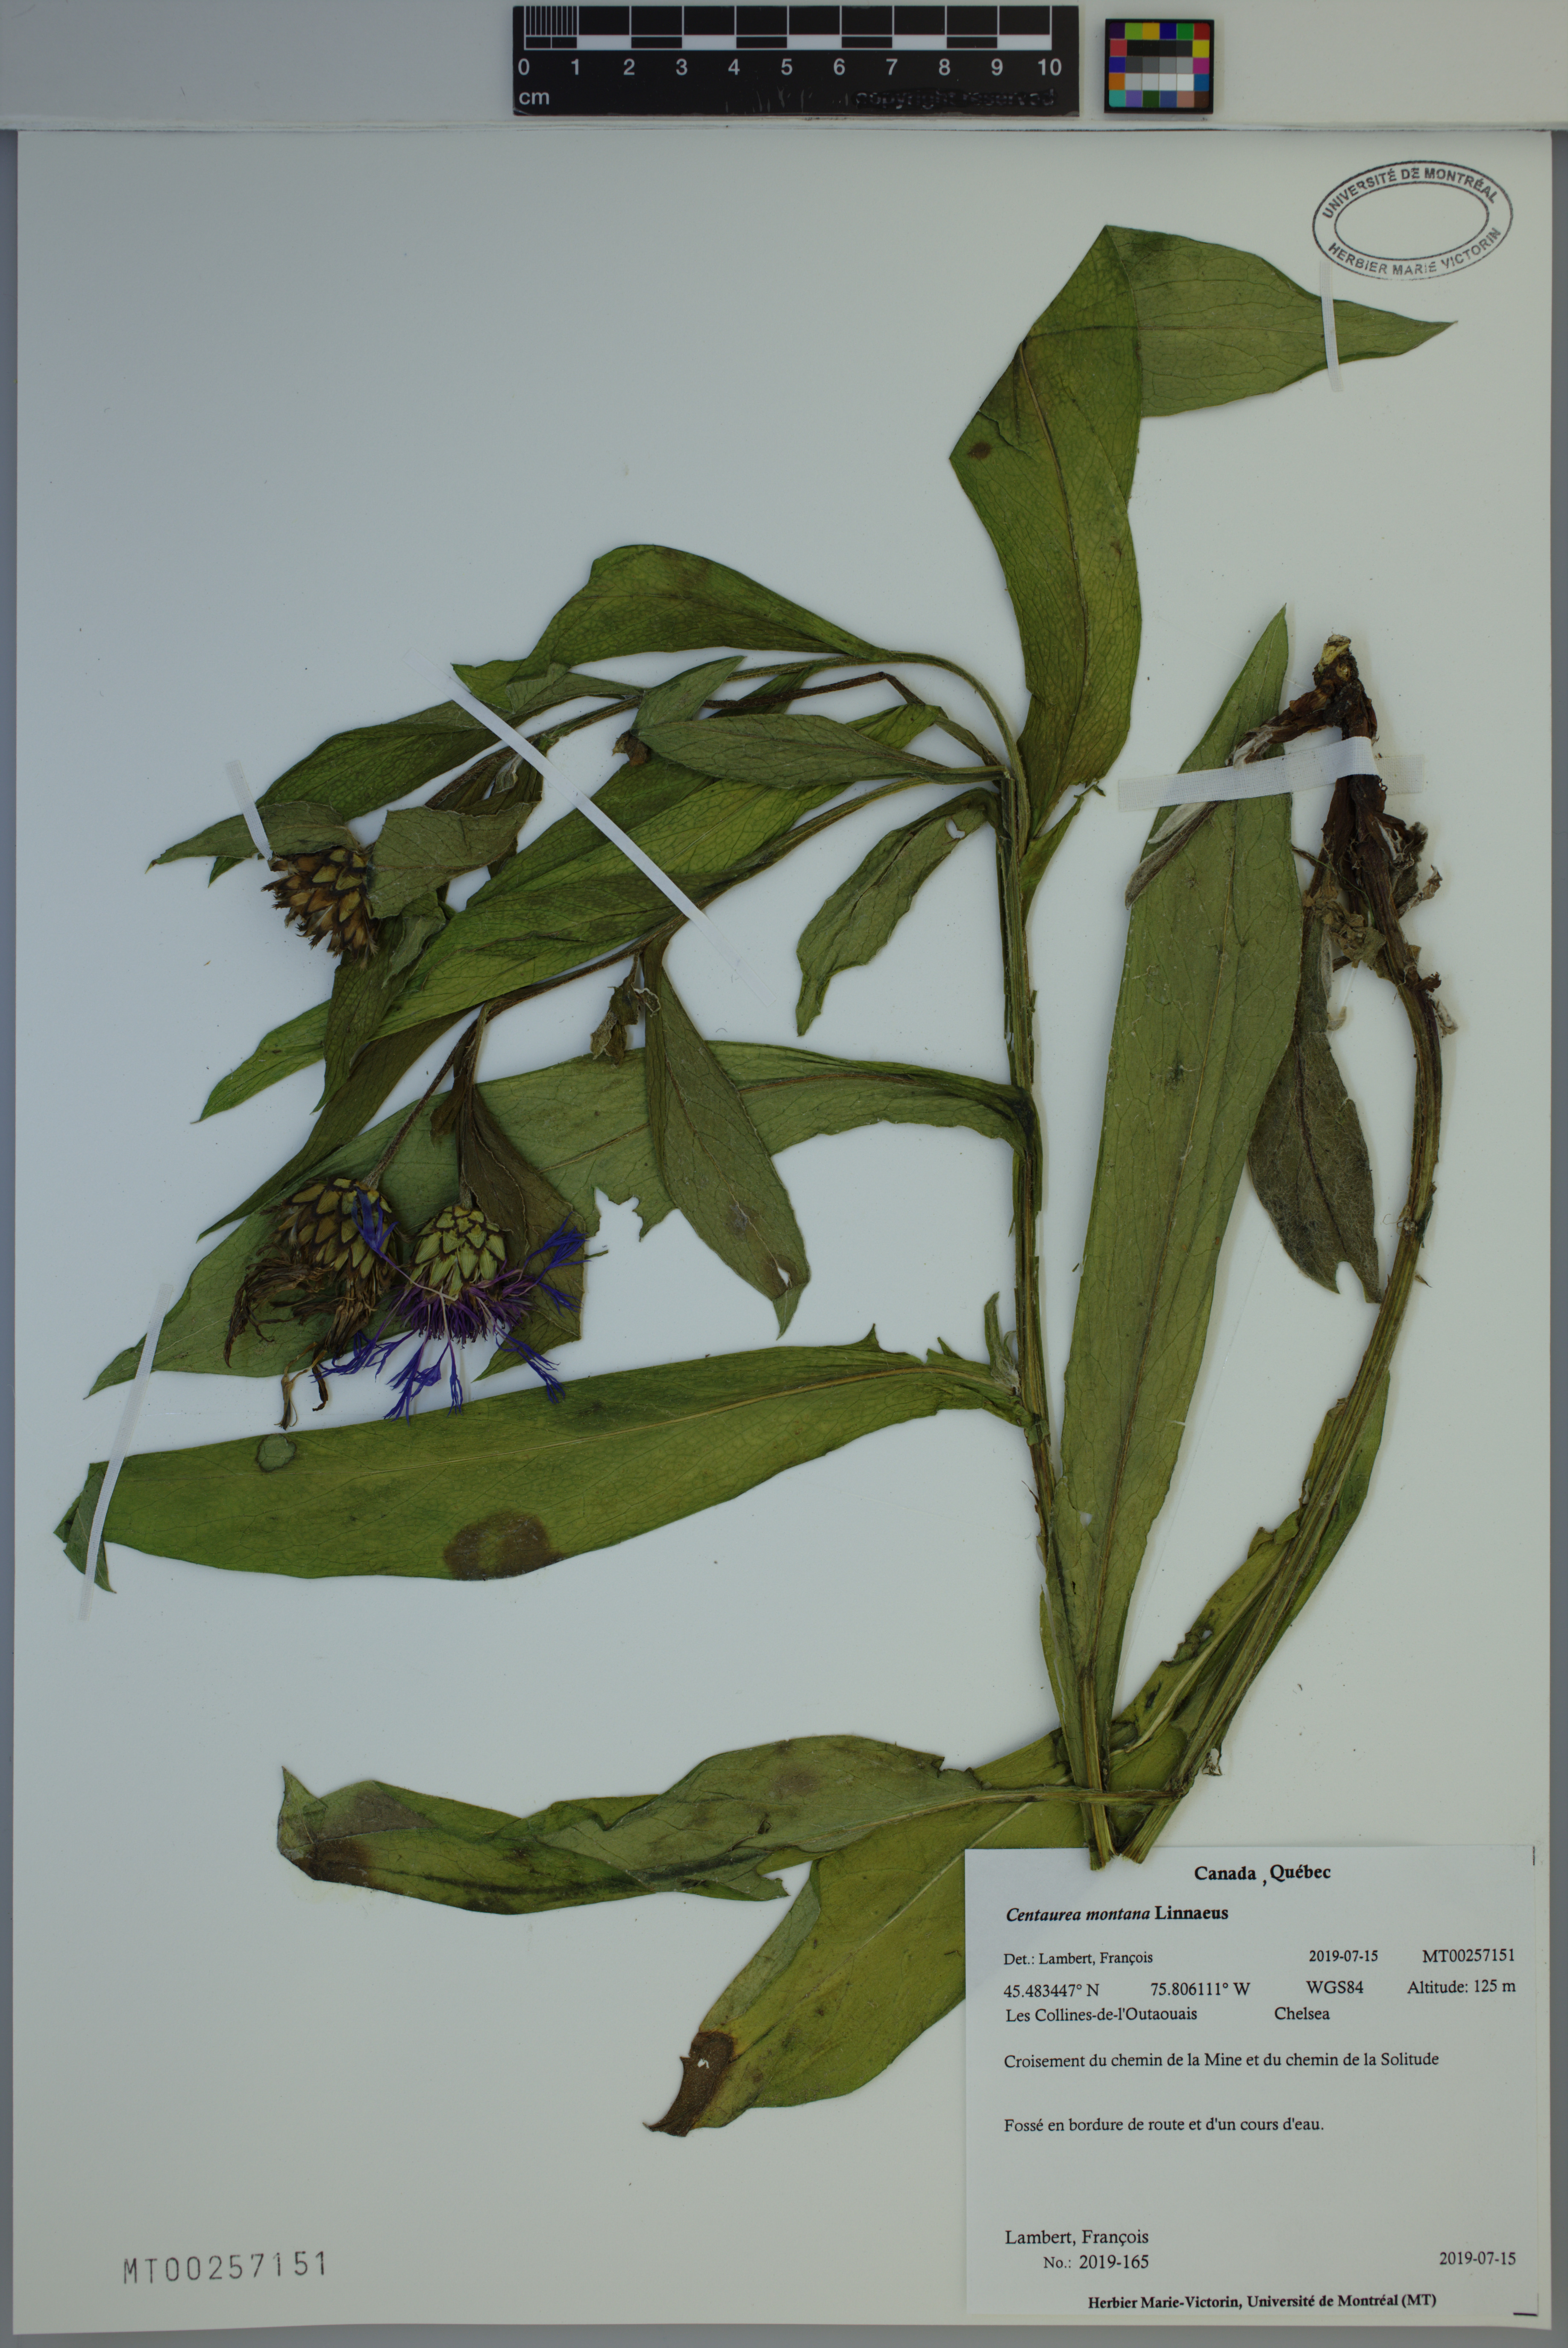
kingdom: Plantae
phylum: Tracheophyta
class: Magnoliopsida
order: Asterales
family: Asteraceae
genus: Centaurea
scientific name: Centaurea montana
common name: Perennial cornflower
